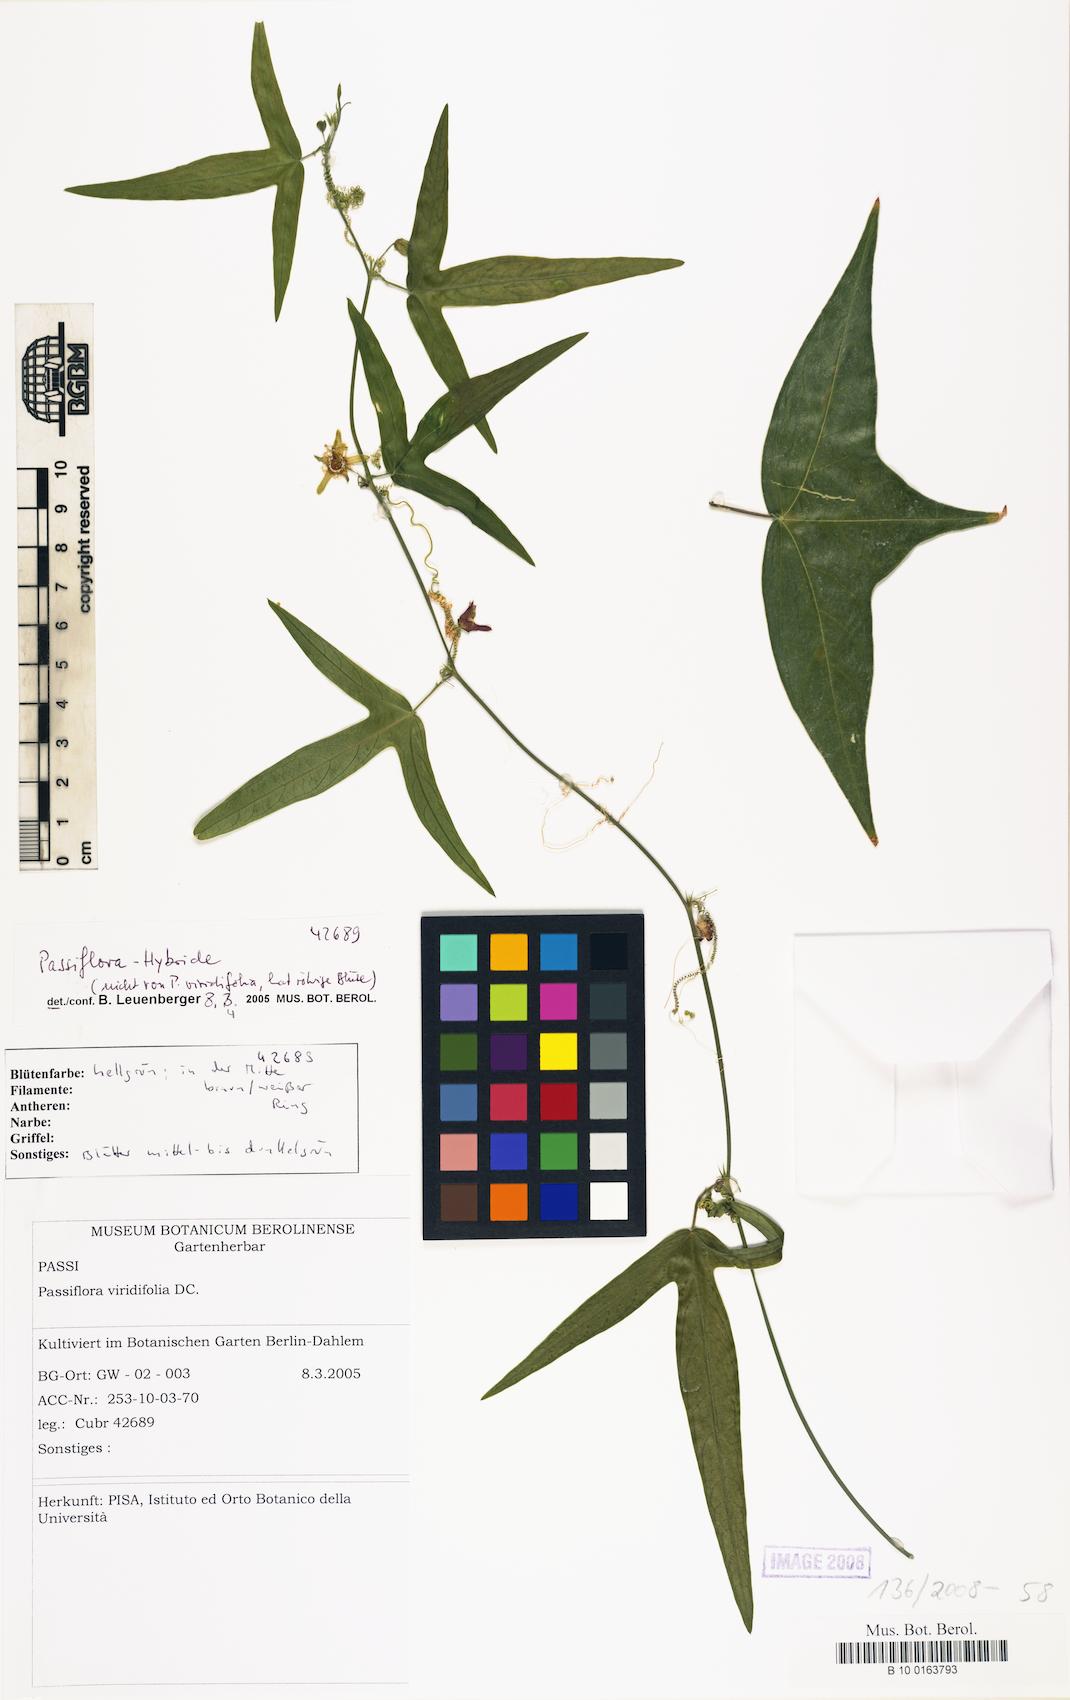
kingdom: Plantae
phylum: Tracheophyta
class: Magnoliopsida
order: Malpighiales
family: Passifloraceae
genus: Passiflora
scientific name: Passiflora pallida
